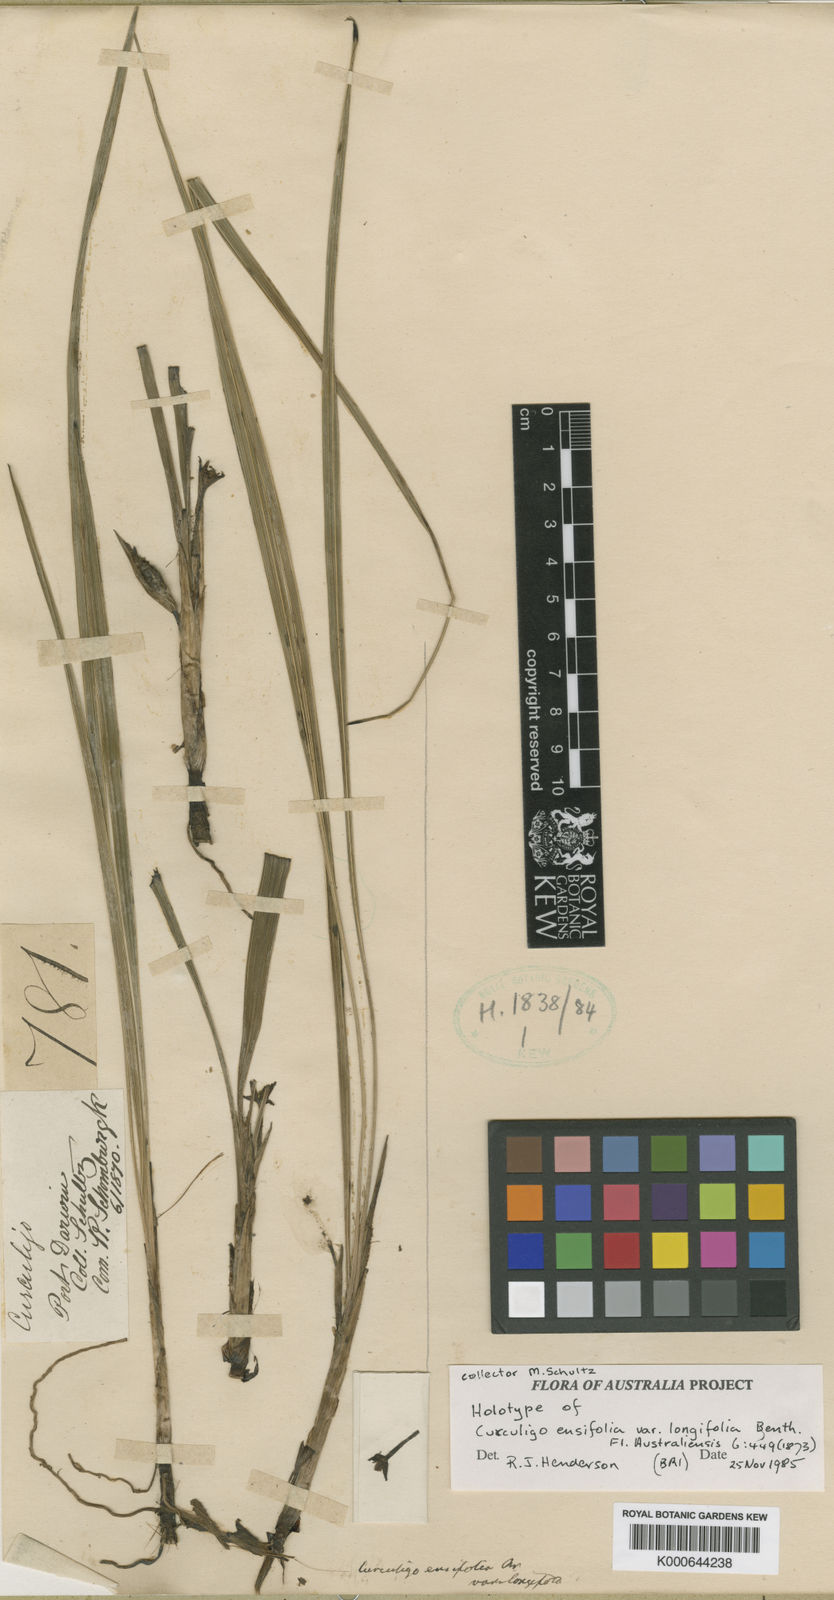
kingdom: Plantae
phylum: Tracheophyta
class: Liliopsida
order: Asparagales
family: Hypoxidaceae
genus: Curculigo
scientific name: Curculigo
